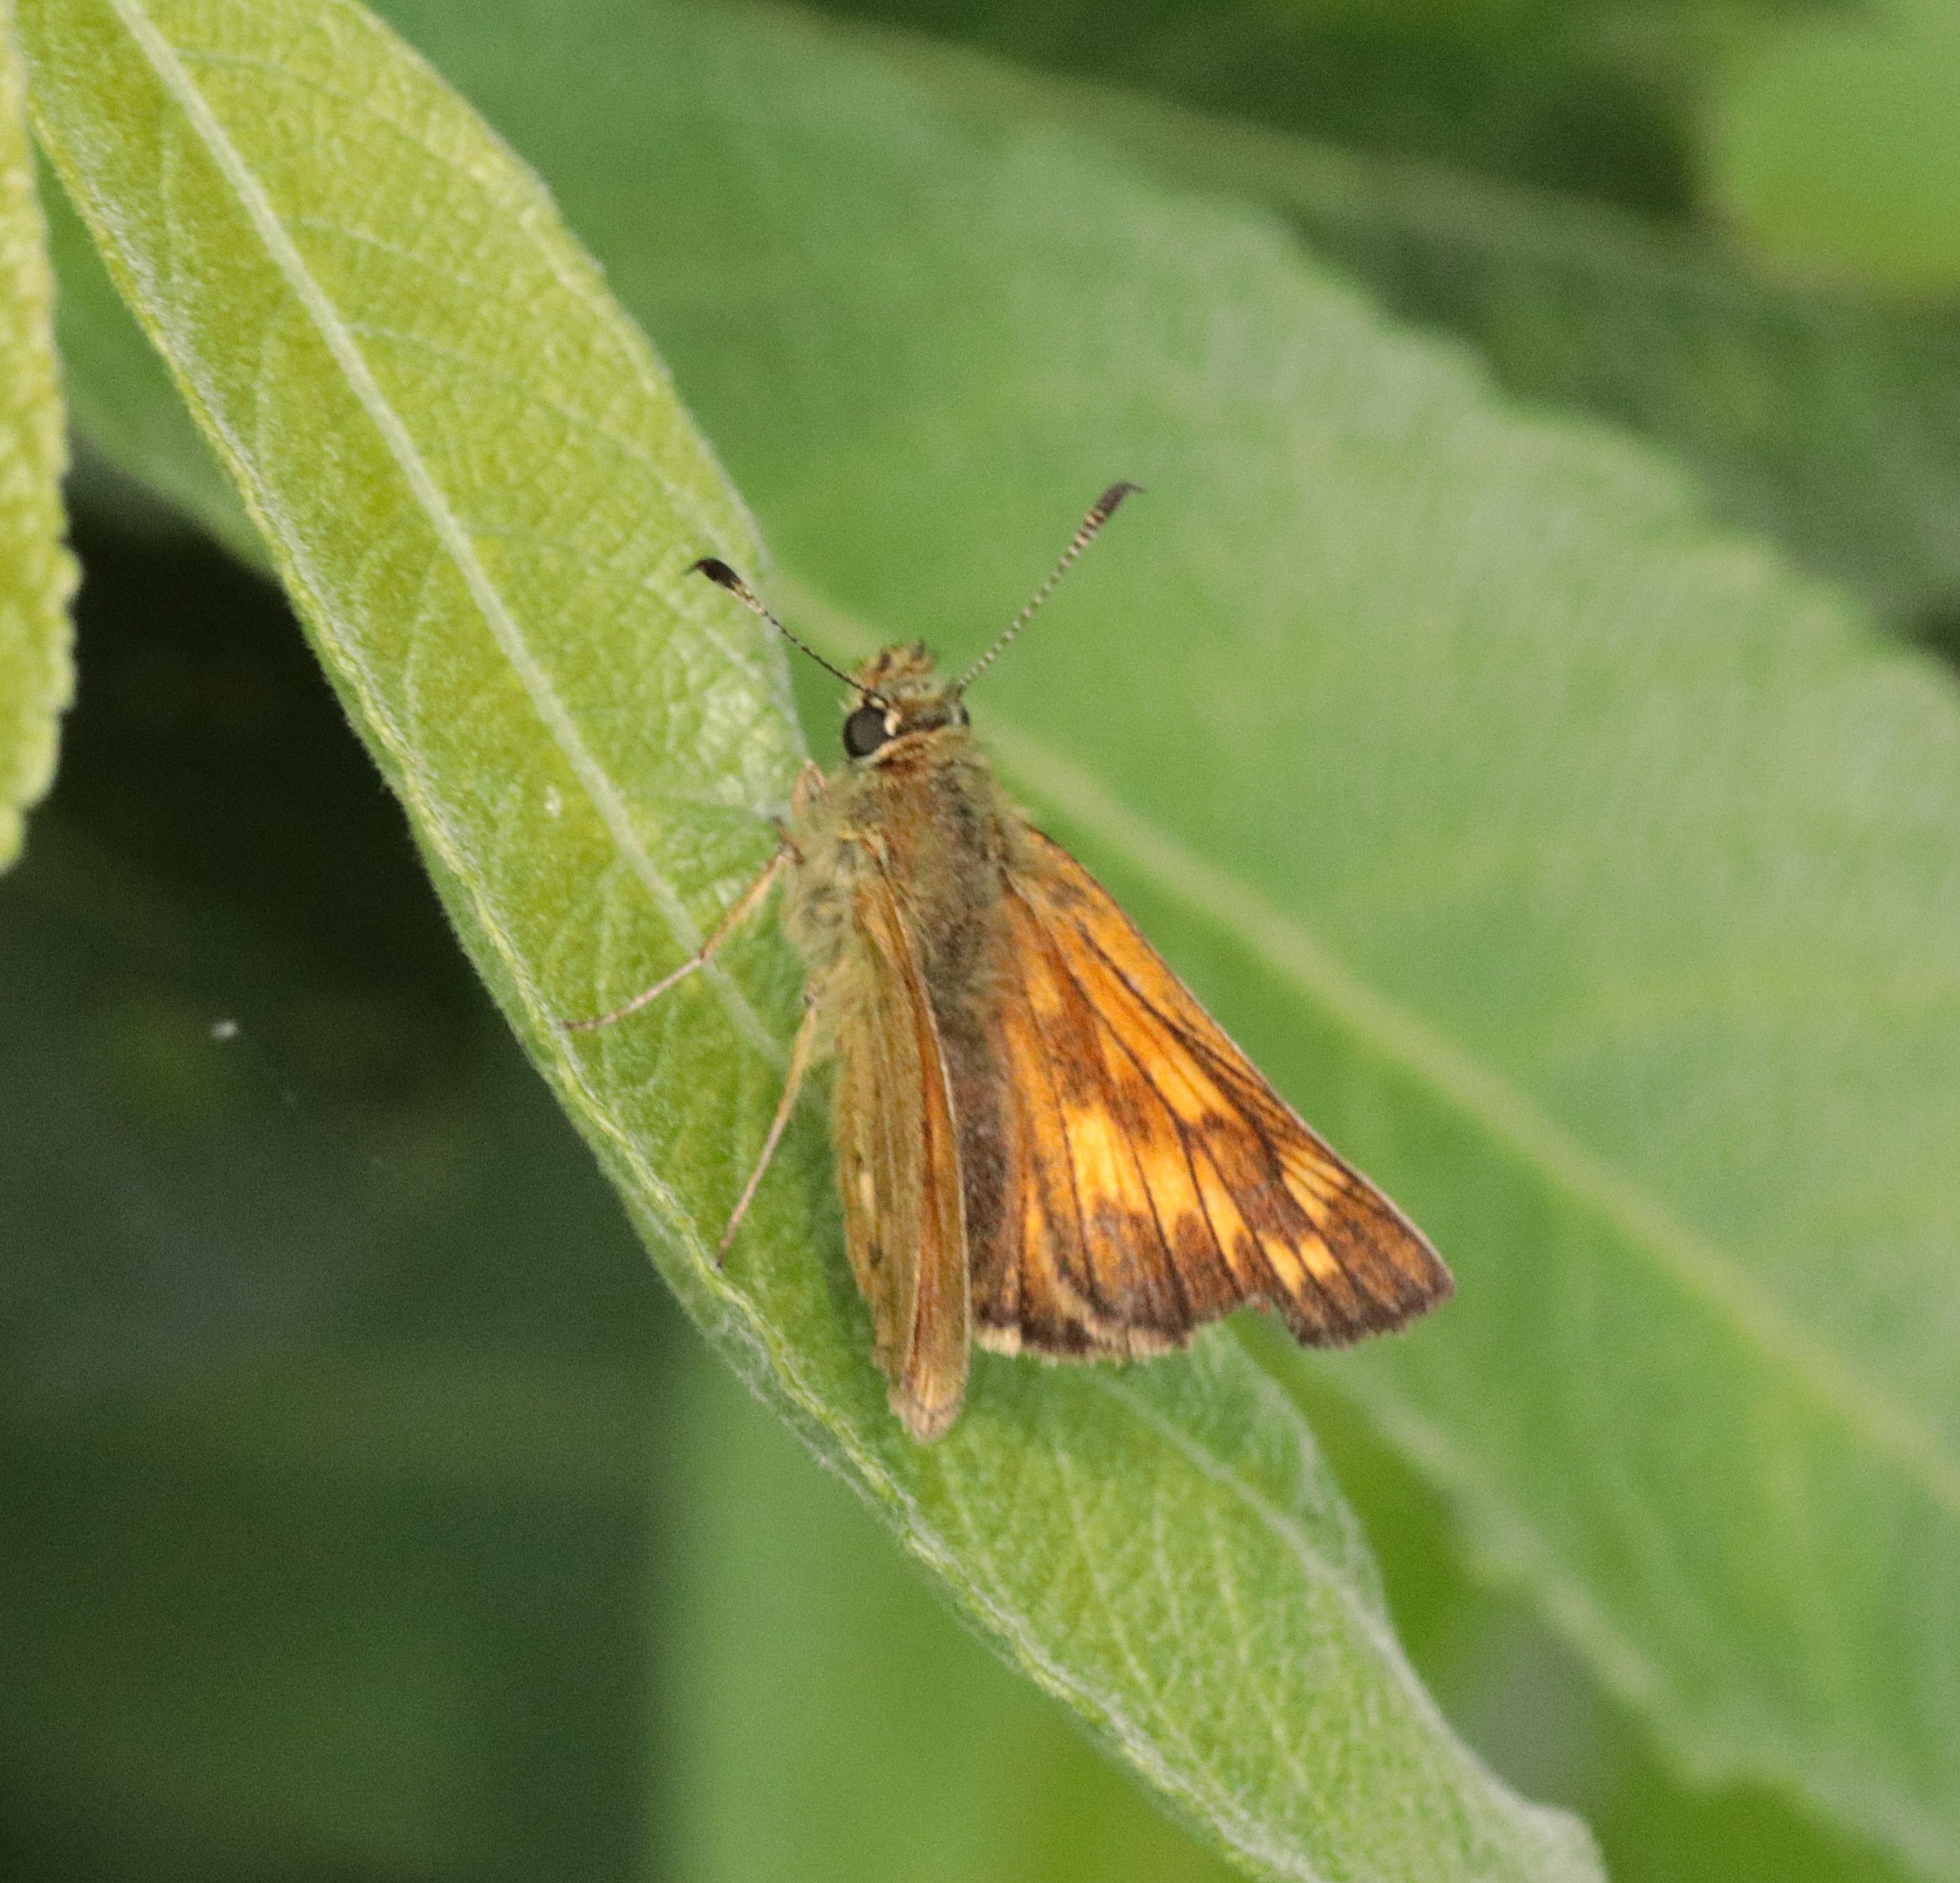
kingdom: Animalia
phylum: Arthropoda
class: Insecta
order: Lepidoptera
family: Hesperiidae
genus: Ochlodes
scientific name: Ochlodes venata
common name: Stor bredpande
